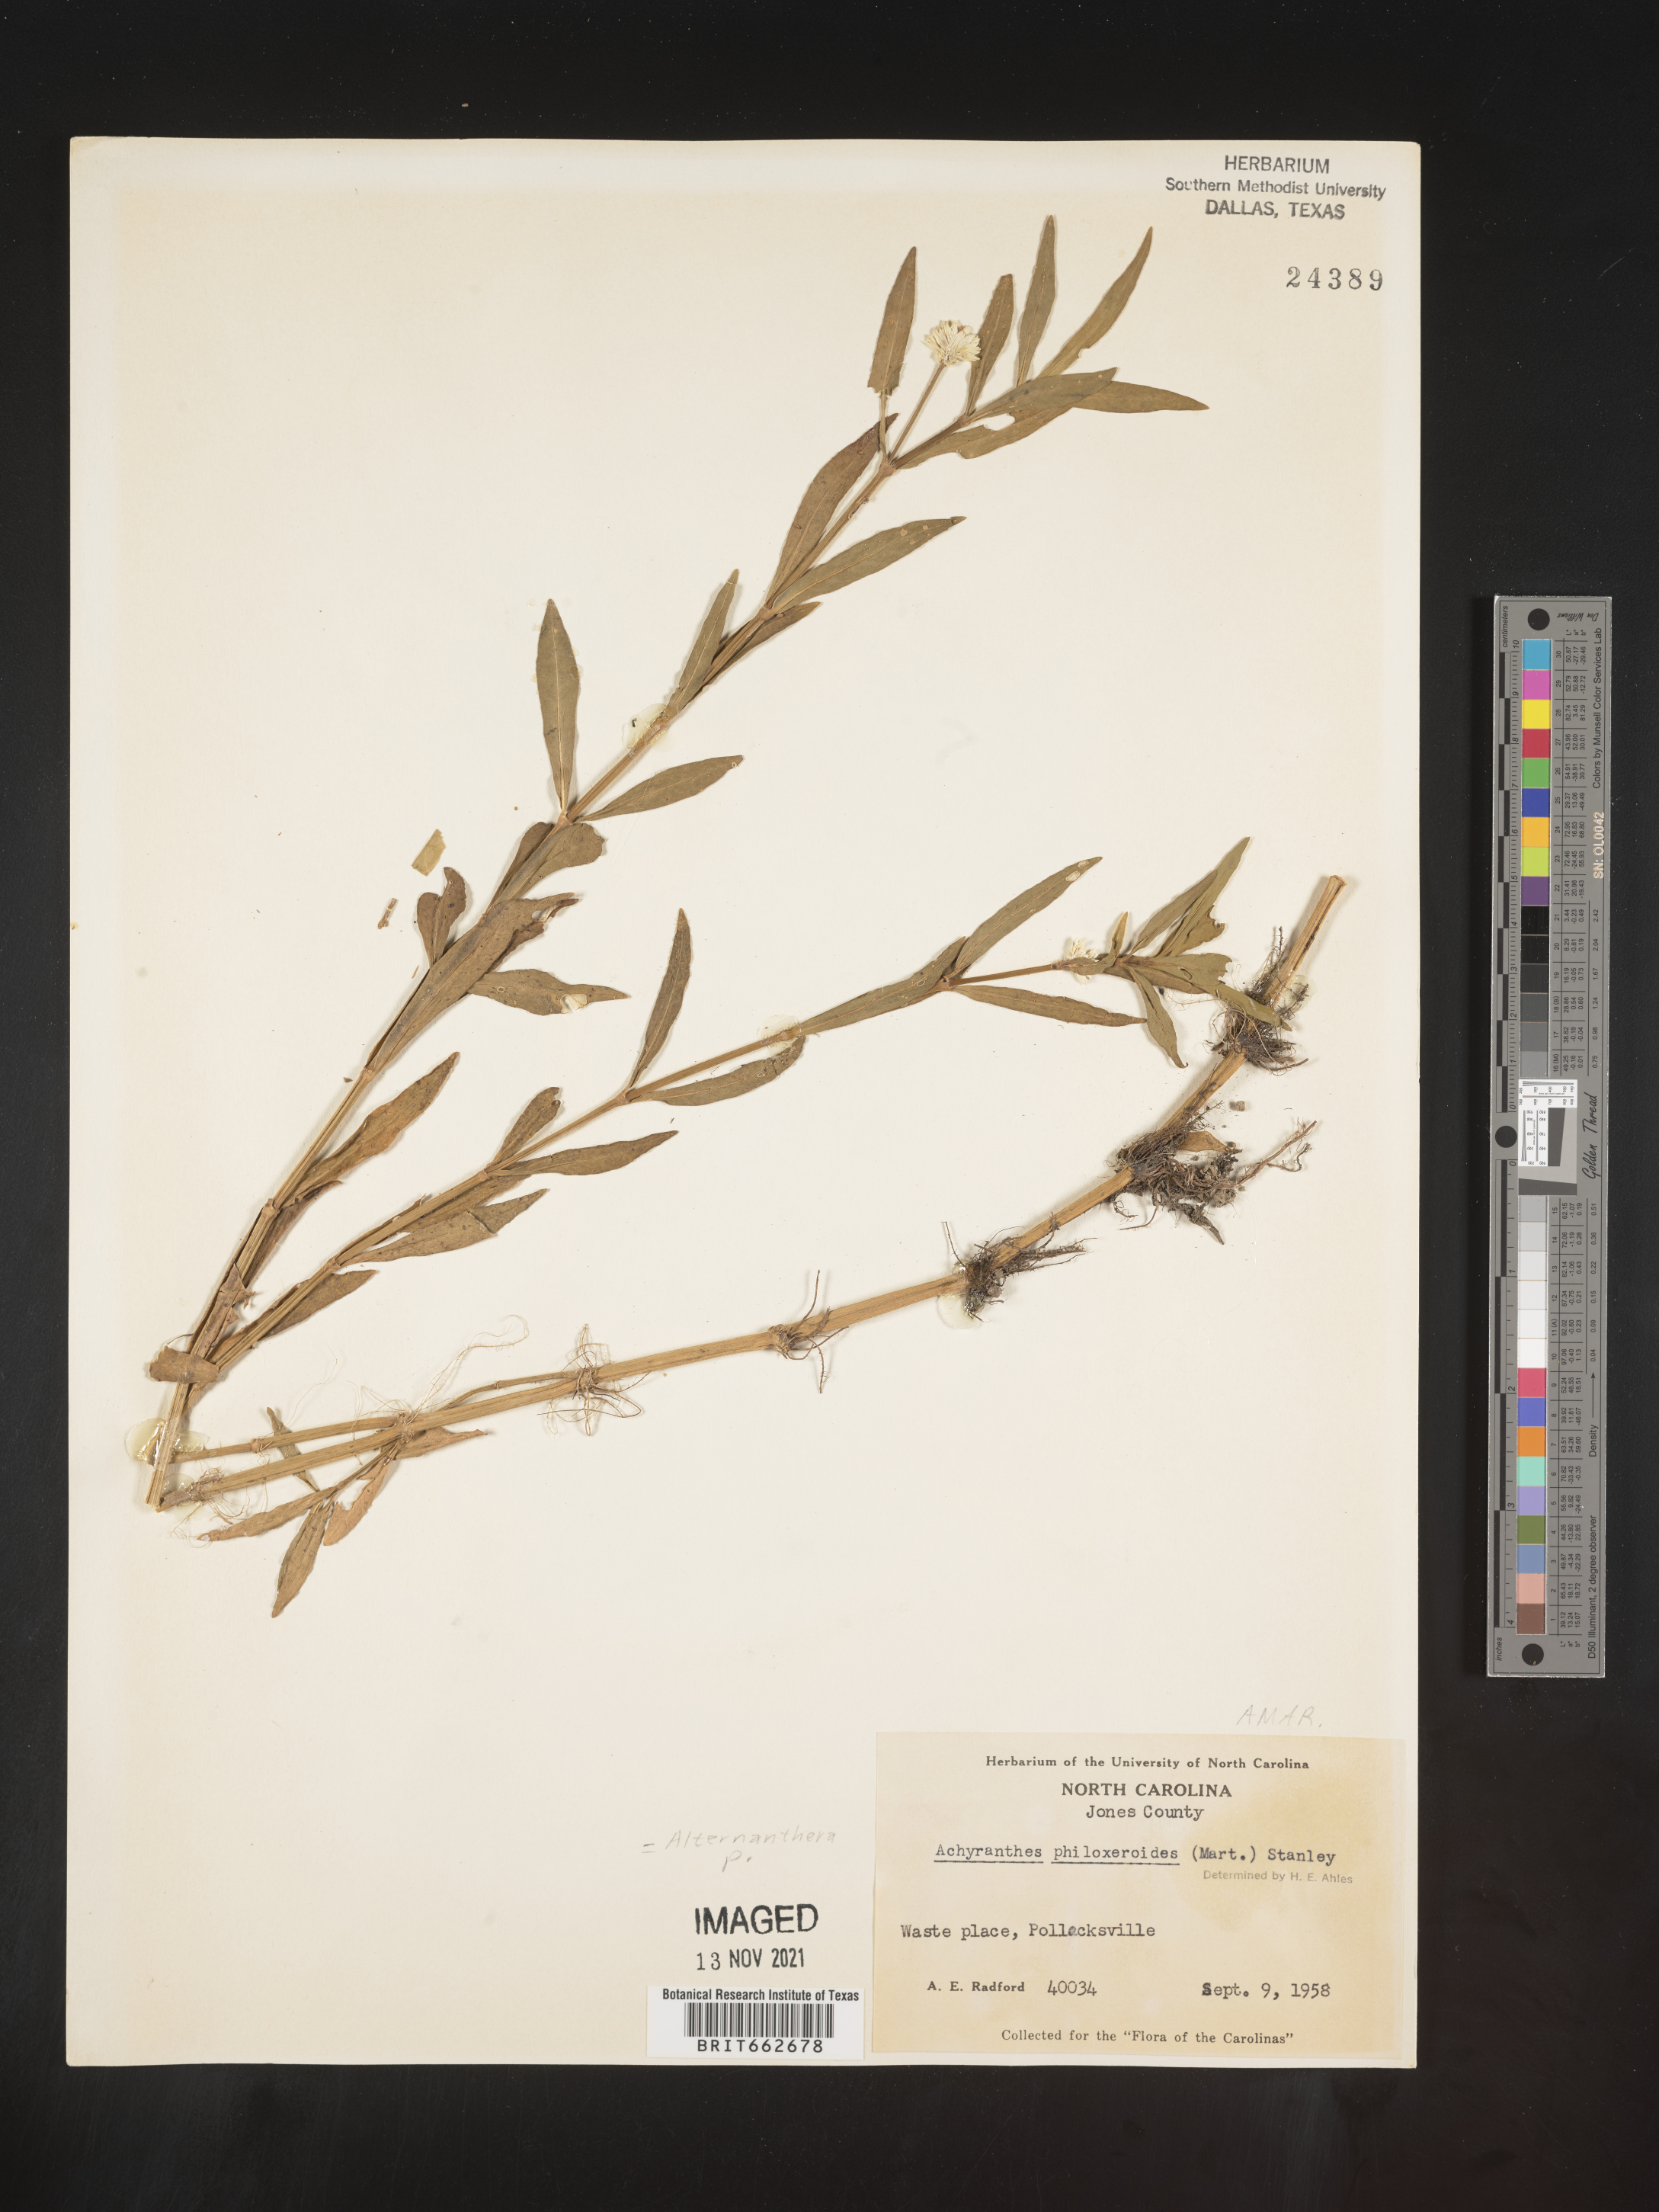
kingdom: Plantae
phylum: Tracheophyta
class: Magnoliopsida
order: Caryophyllales
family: Amaranthaceae
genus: Alternanthera
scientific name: Alternanthera philoxeroides
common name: Alligatorweed
